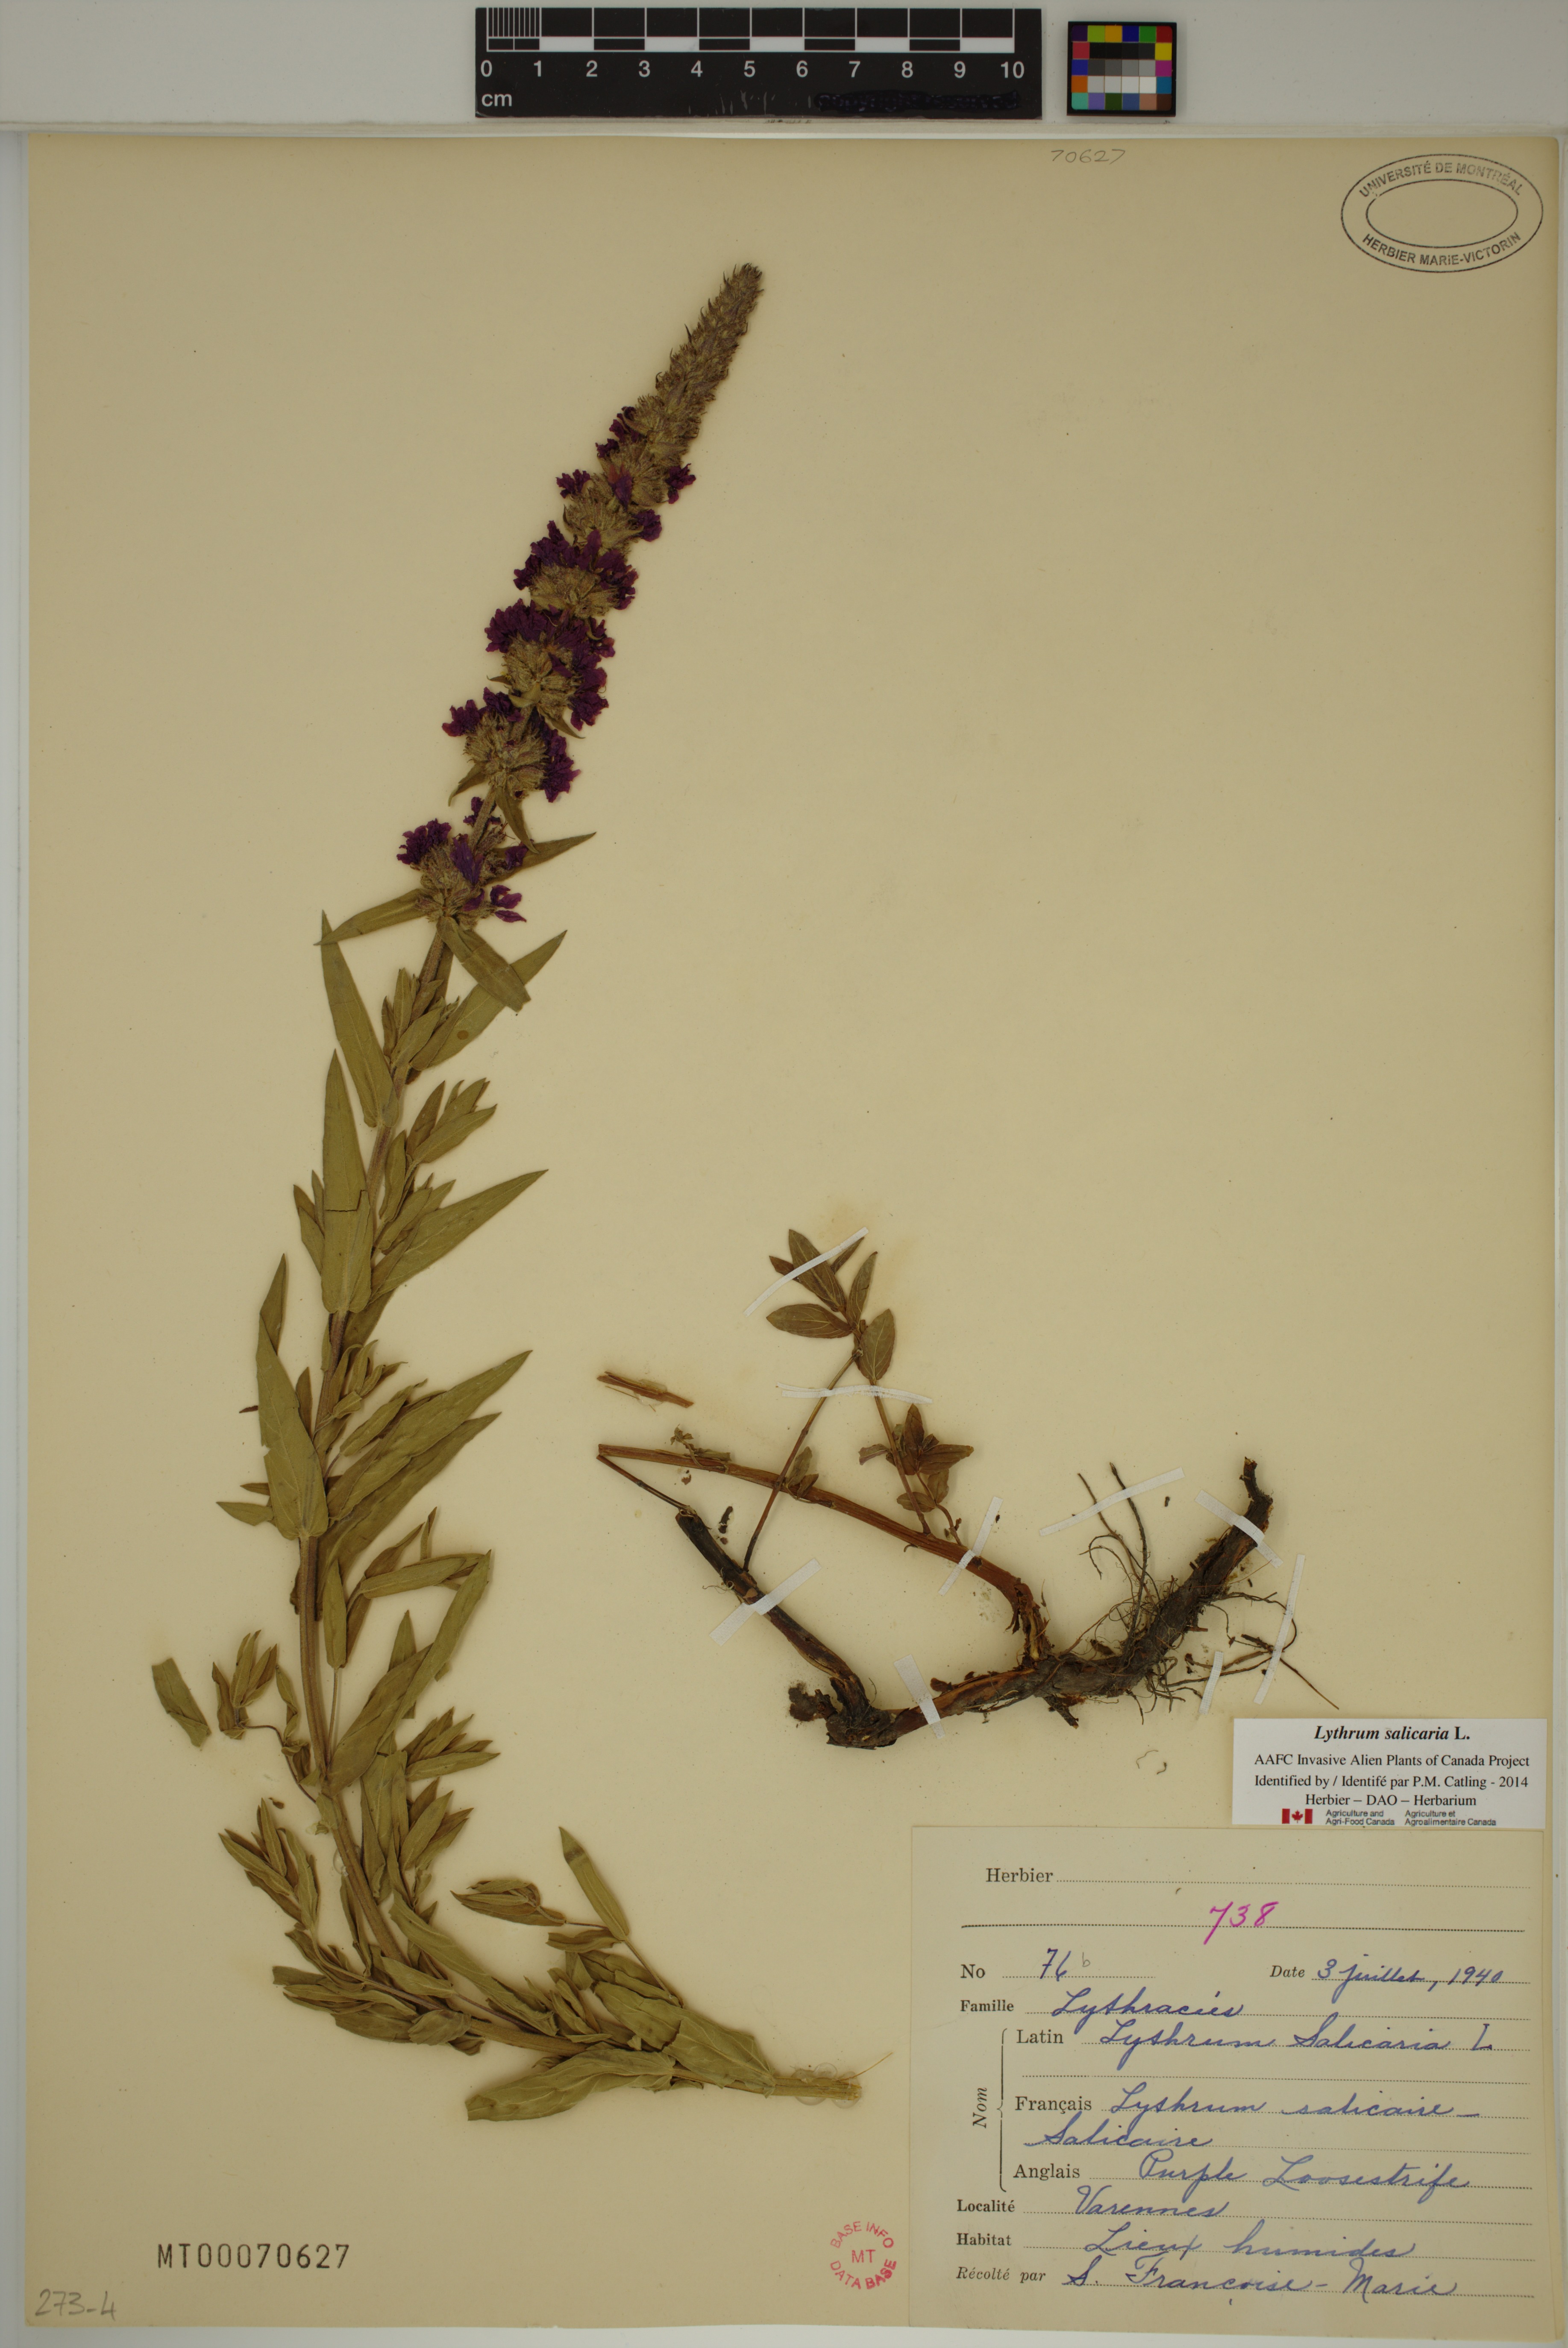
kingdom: Plantae
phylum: Tracheophyta
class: Magnoliopsida
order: Myrtales
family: Lythraceae
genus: Lythrum
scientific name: Lythrum salicaria
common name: Purple loosestrife
